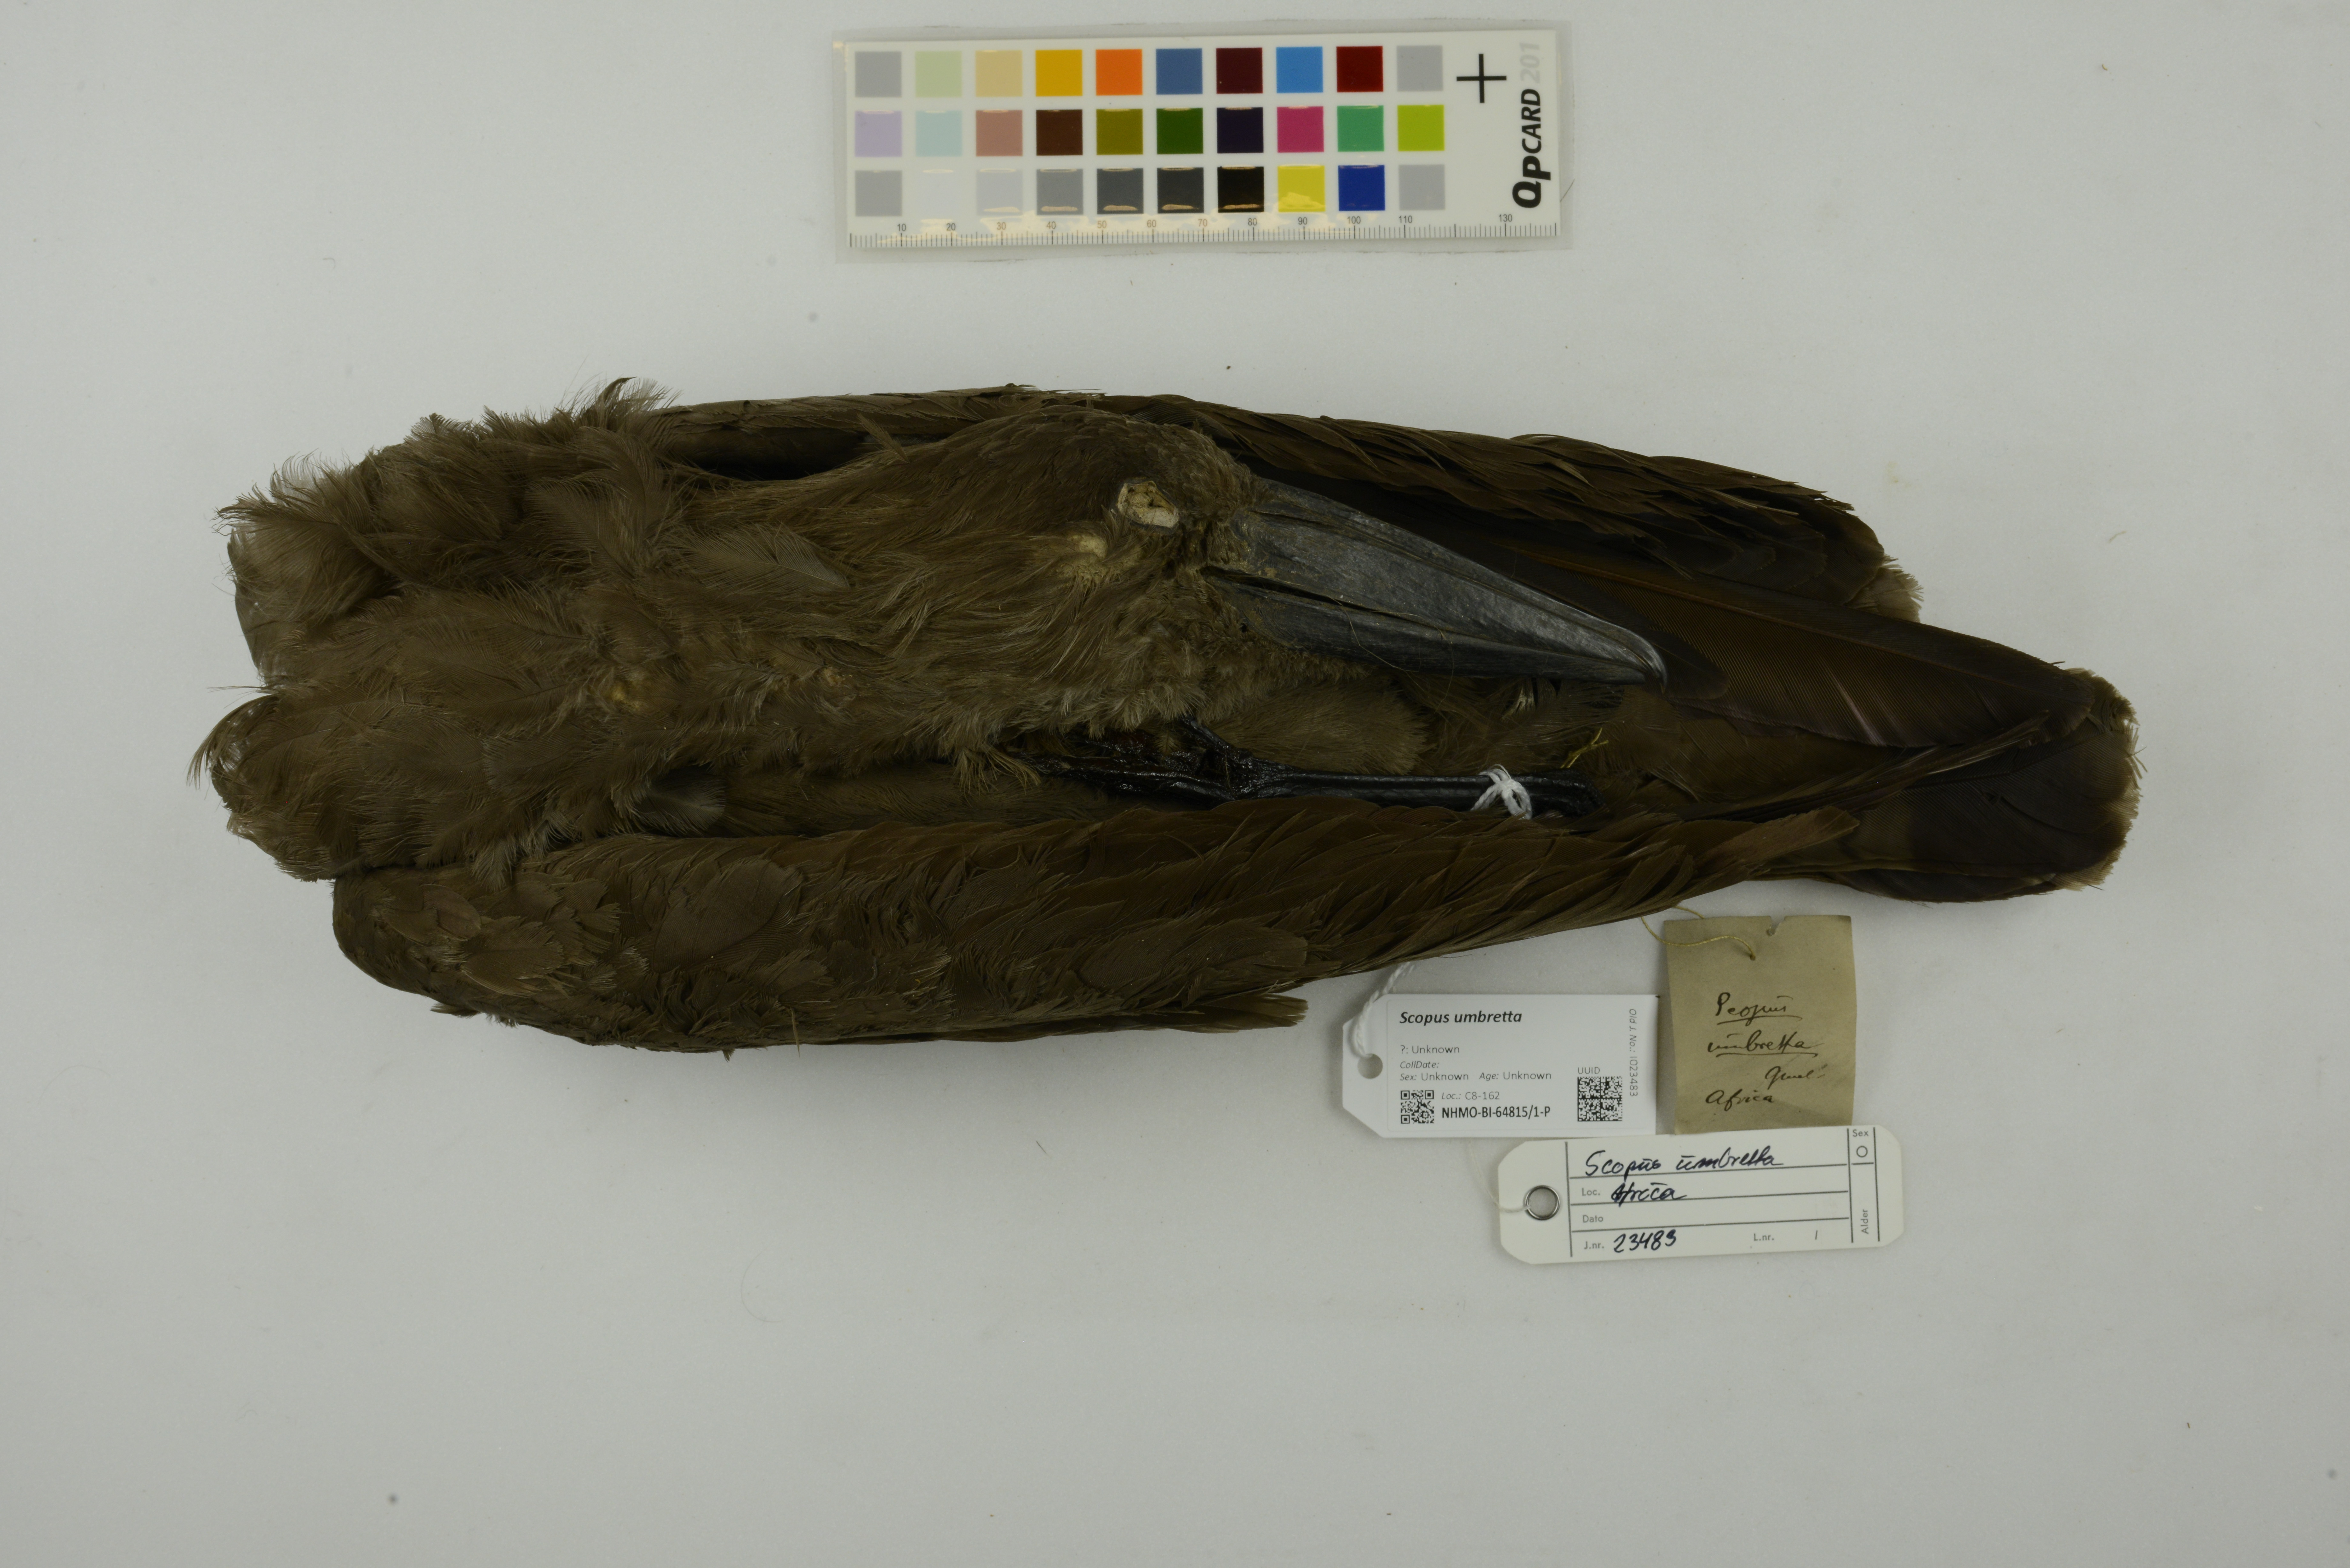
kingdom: Animalia
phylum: Chordata
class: Aves
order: Pelecaniformes
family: Scopidae
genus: Scopus
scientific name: Scopus umbretta
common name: Hamerkop
